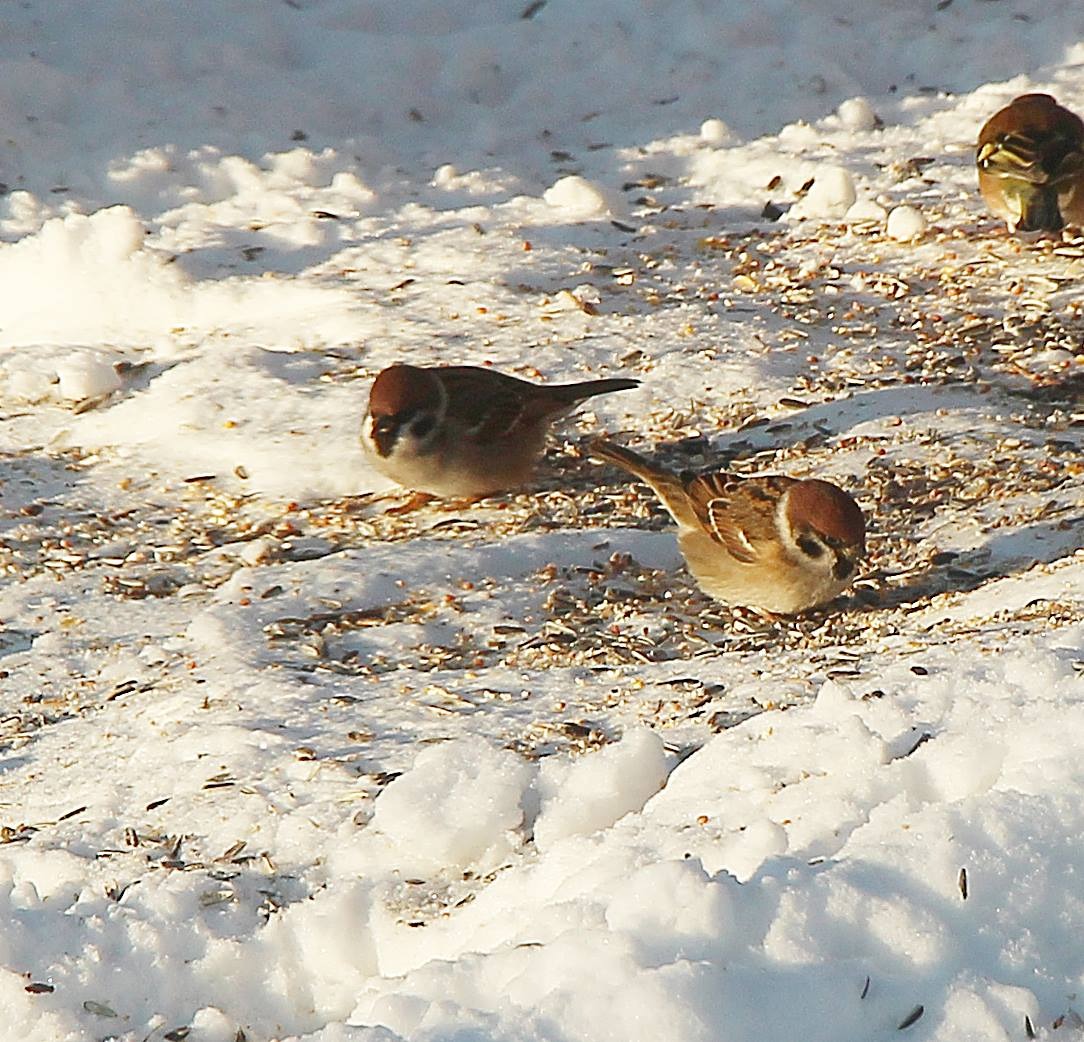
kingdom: Animalia
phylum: Chordata
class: Aves
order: Passeriformes
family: Passeridae
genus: Passer
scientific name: Passer montanus
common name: Skovspurv
